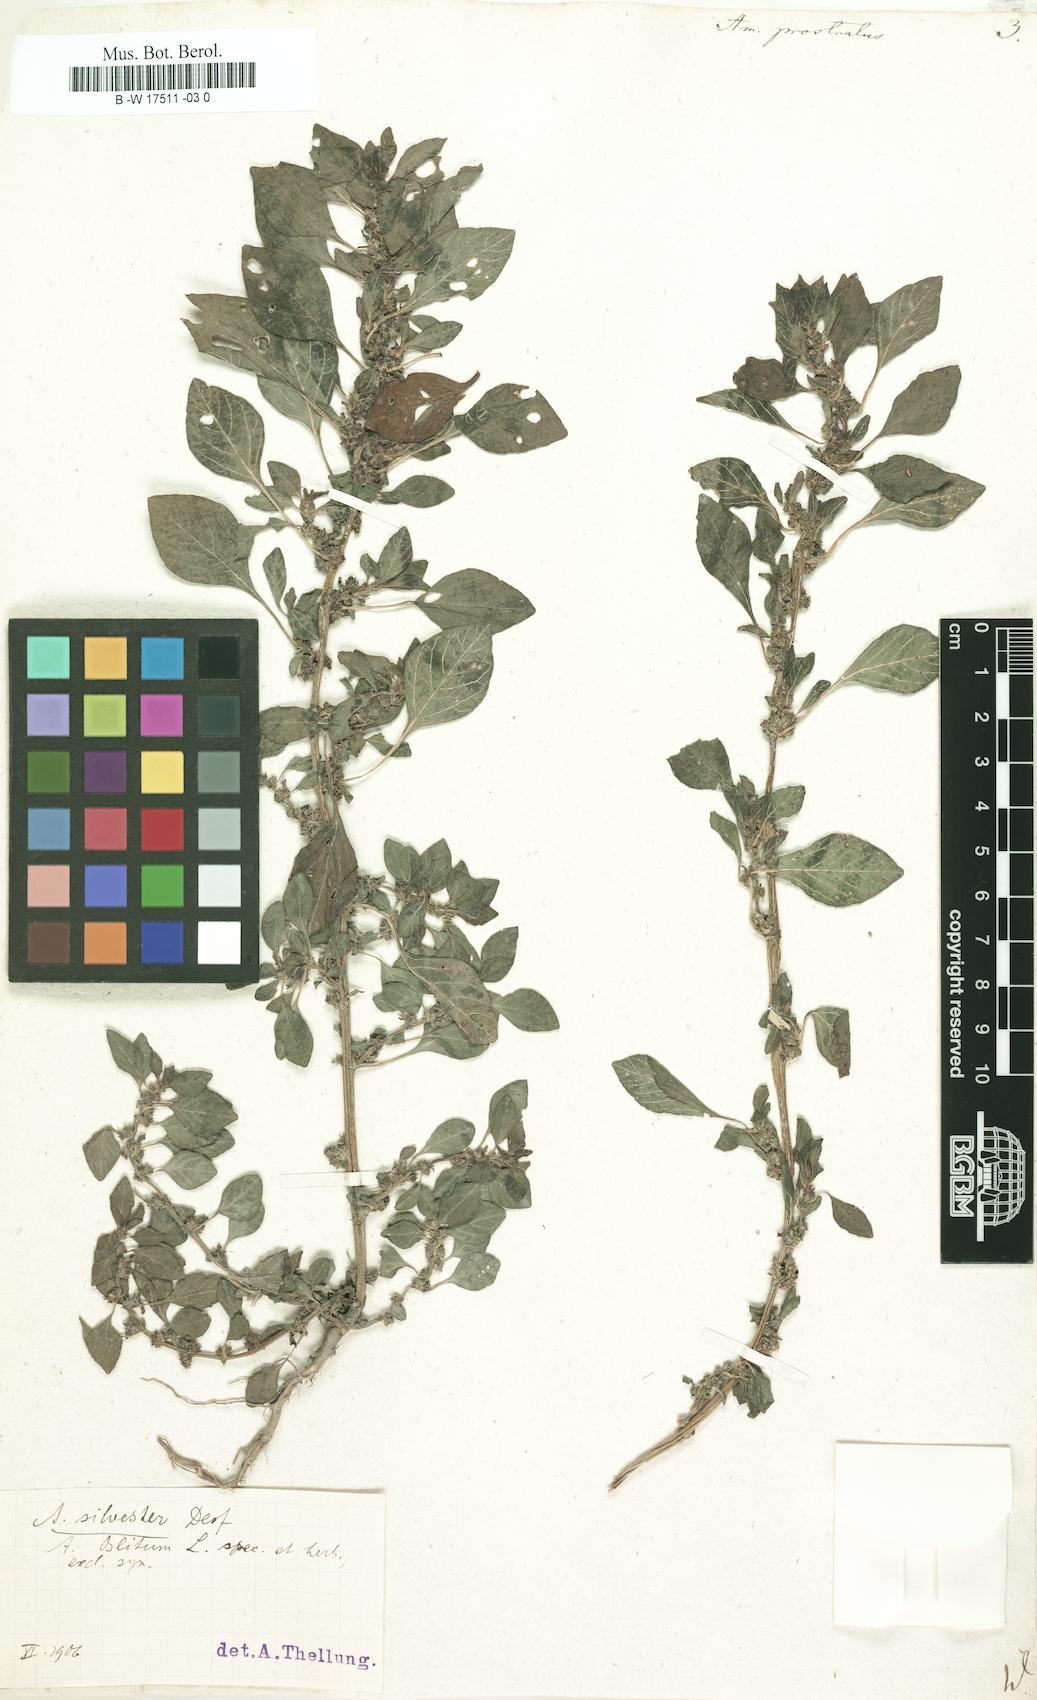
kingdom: Plantae
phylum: Tracheophyta
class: Magnoliopsida
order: Caryophyllales
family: Amaranthaceae
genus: Amaranthus
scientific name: Amaranthus deflexus
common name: Perennial pigweed
